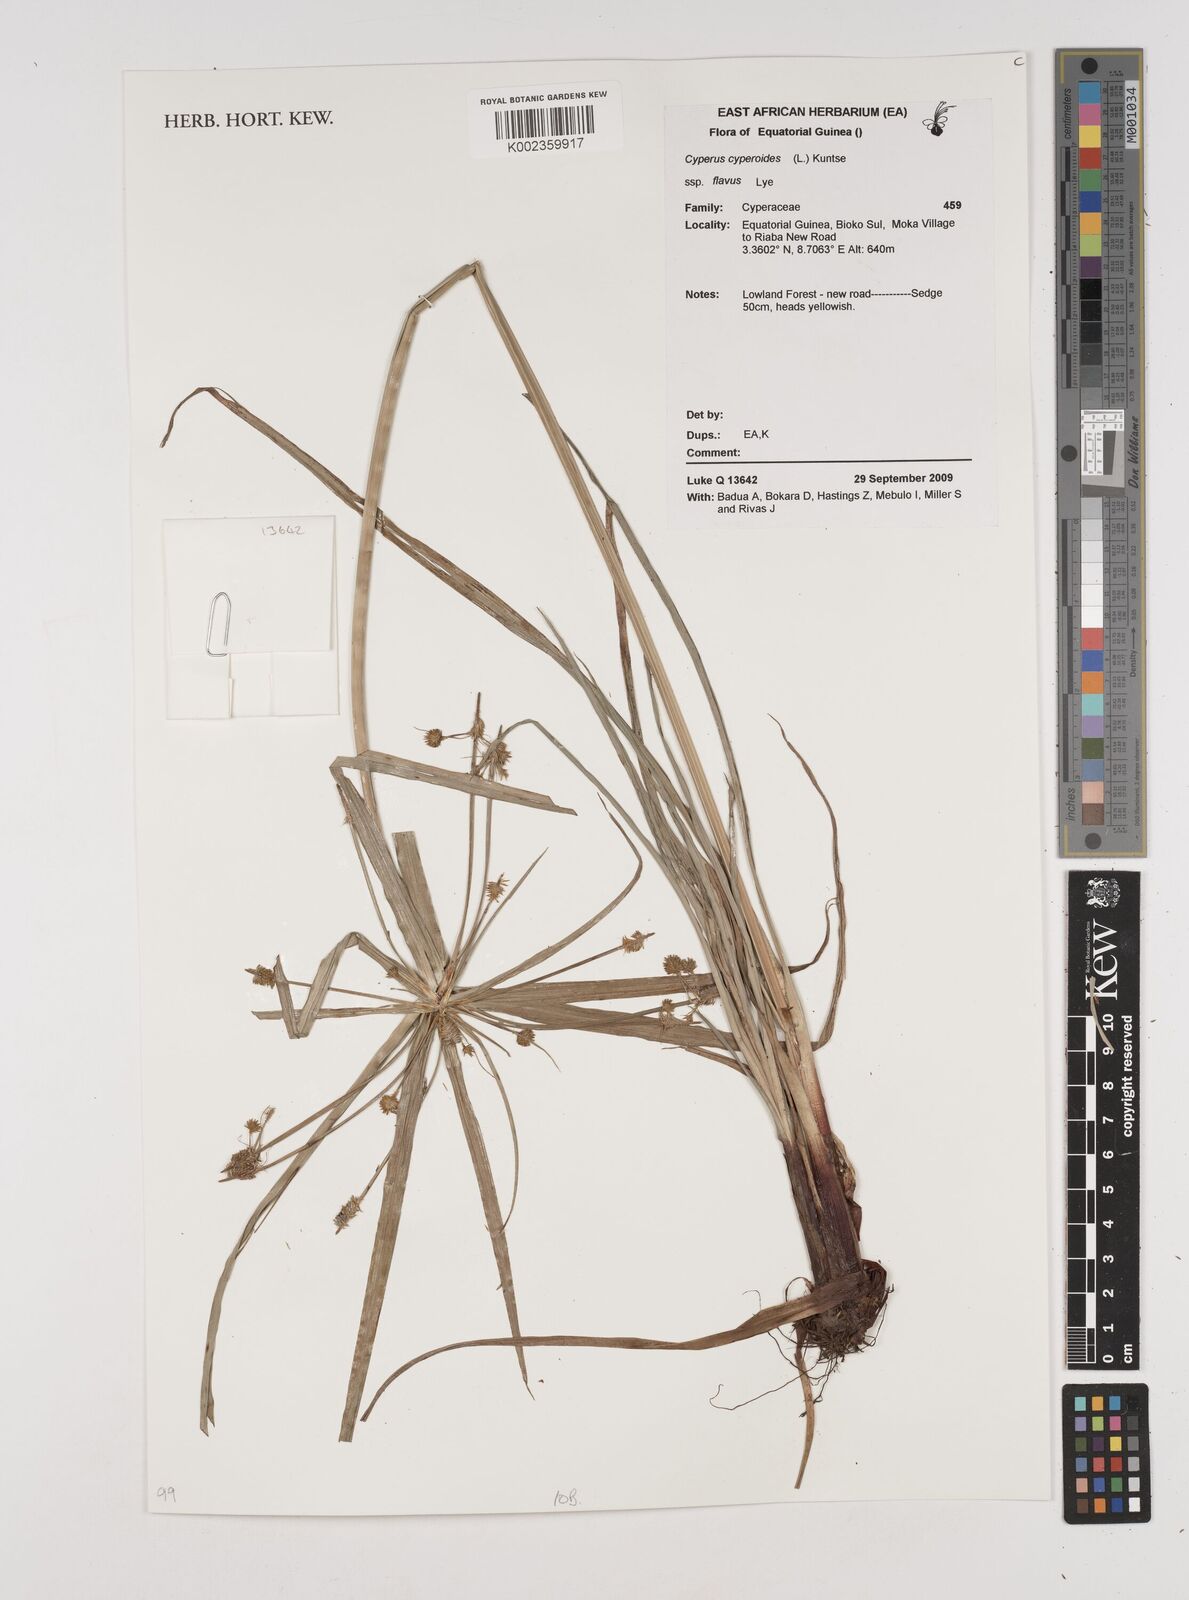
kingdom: Plantae
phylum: Tracheophyta
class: Liliopsida
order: Poales
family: Cyperaceae
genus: Cyperus
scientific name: Cyperus cyperoides
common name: Pacific island flat sedge
